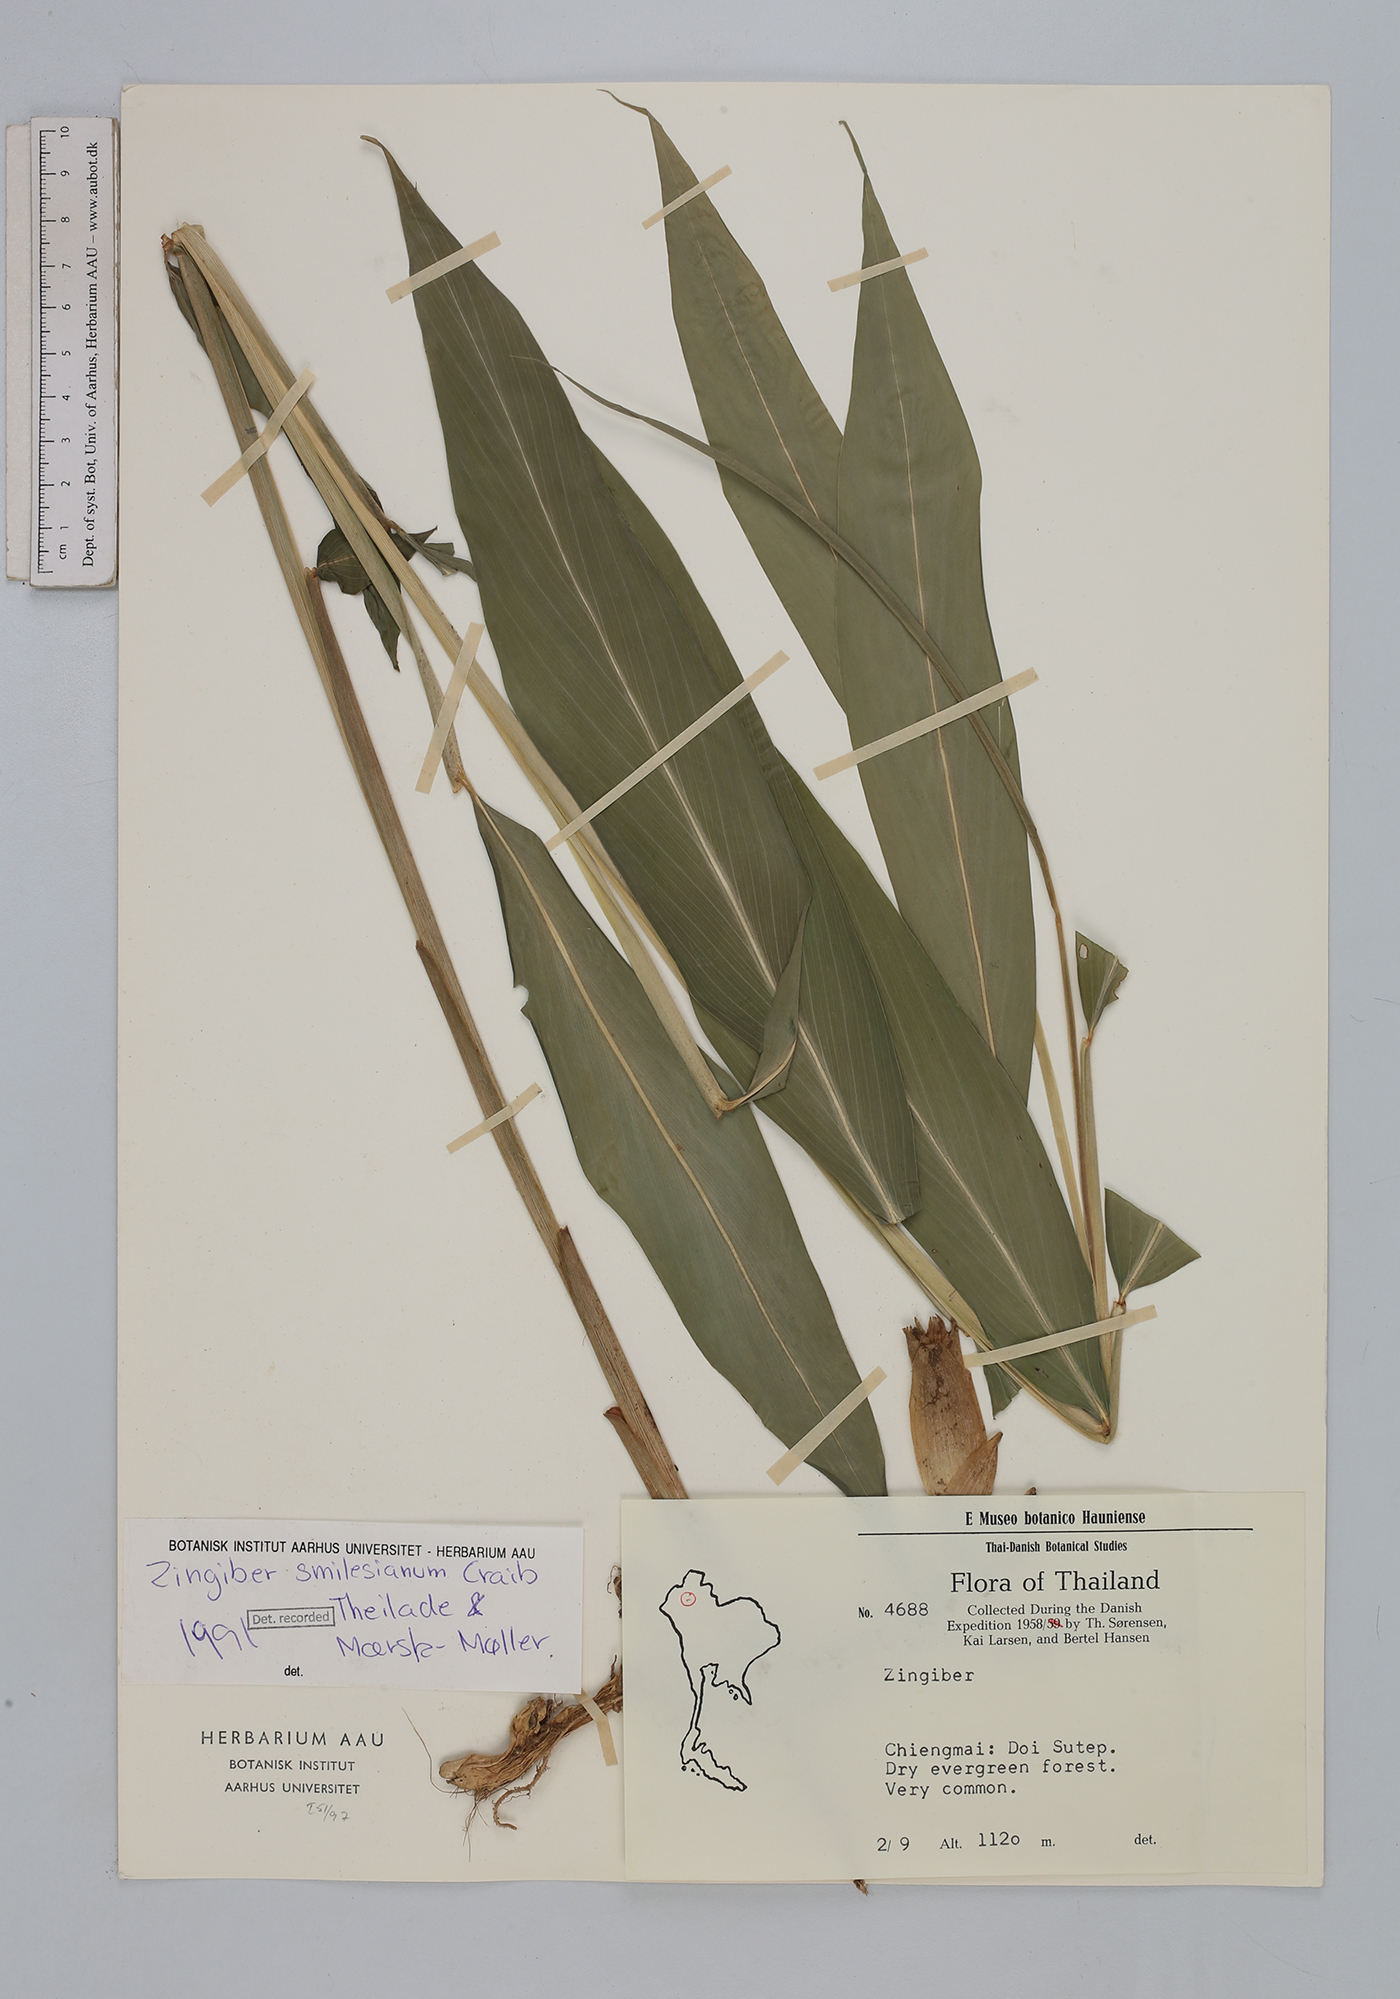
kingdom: Plantae
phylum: Tracheophyta
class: Liliopsida
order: Zingiberales
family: Zingiberaceae
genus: Zingiber
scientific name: Zingiber smilesianum
